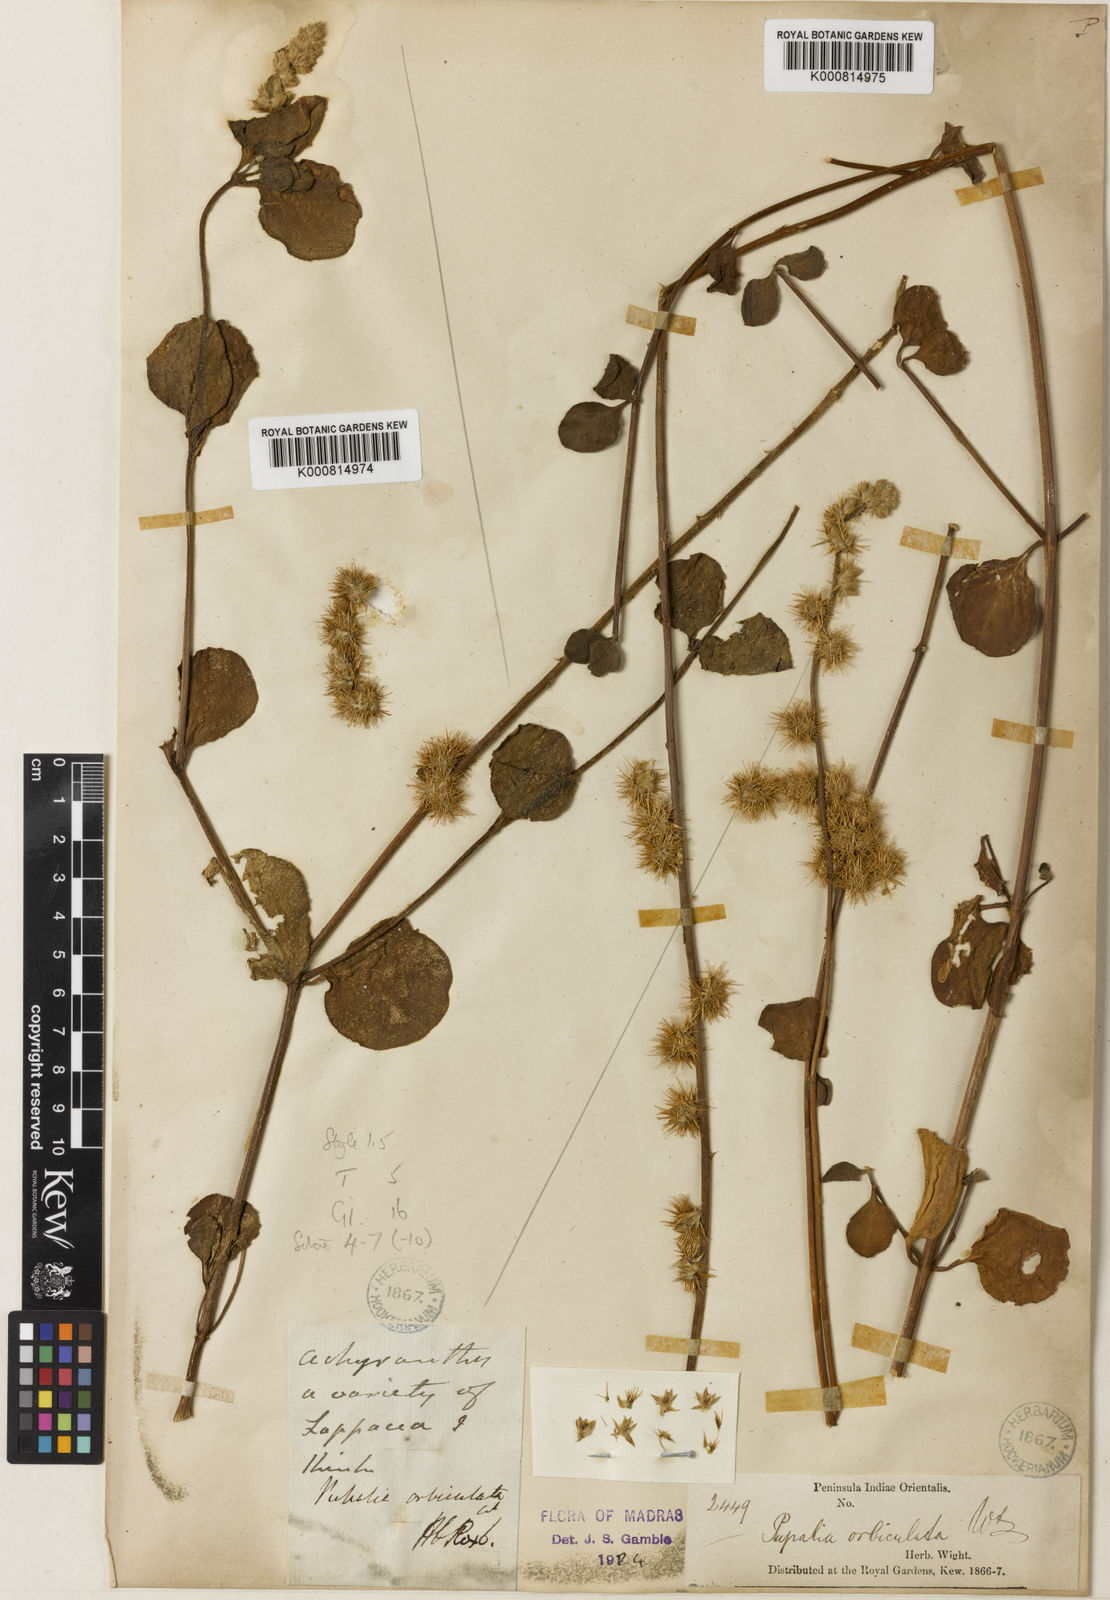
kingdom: Plantae
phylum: Tracheophyta
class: Magnoliopsida
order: Caryophyllales
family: Amaranthaceae
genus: Pupalia
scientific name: Pupalia lappacea
